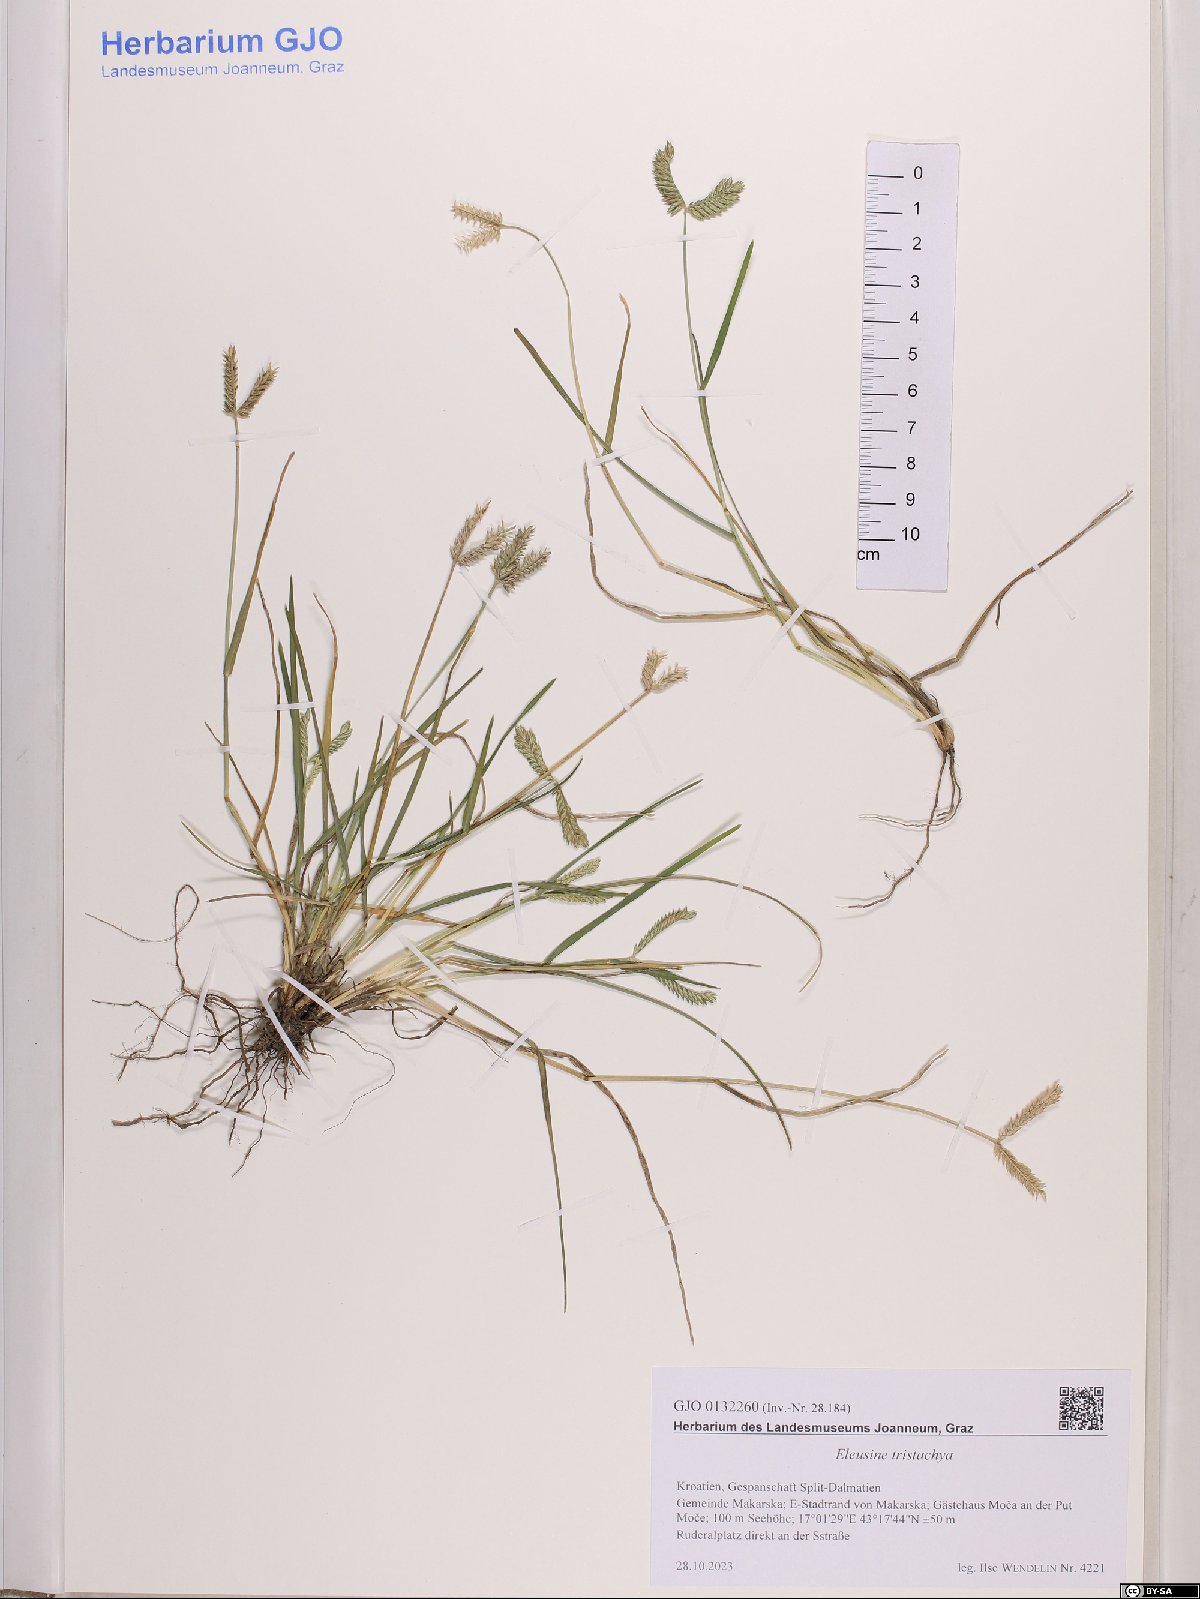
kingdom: Plantae
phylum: Tracheophyta
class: Liliopsida
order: Poales
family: Poaceae
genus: Eleusine
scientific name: Eleusine tristachya
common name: American yard-grass
